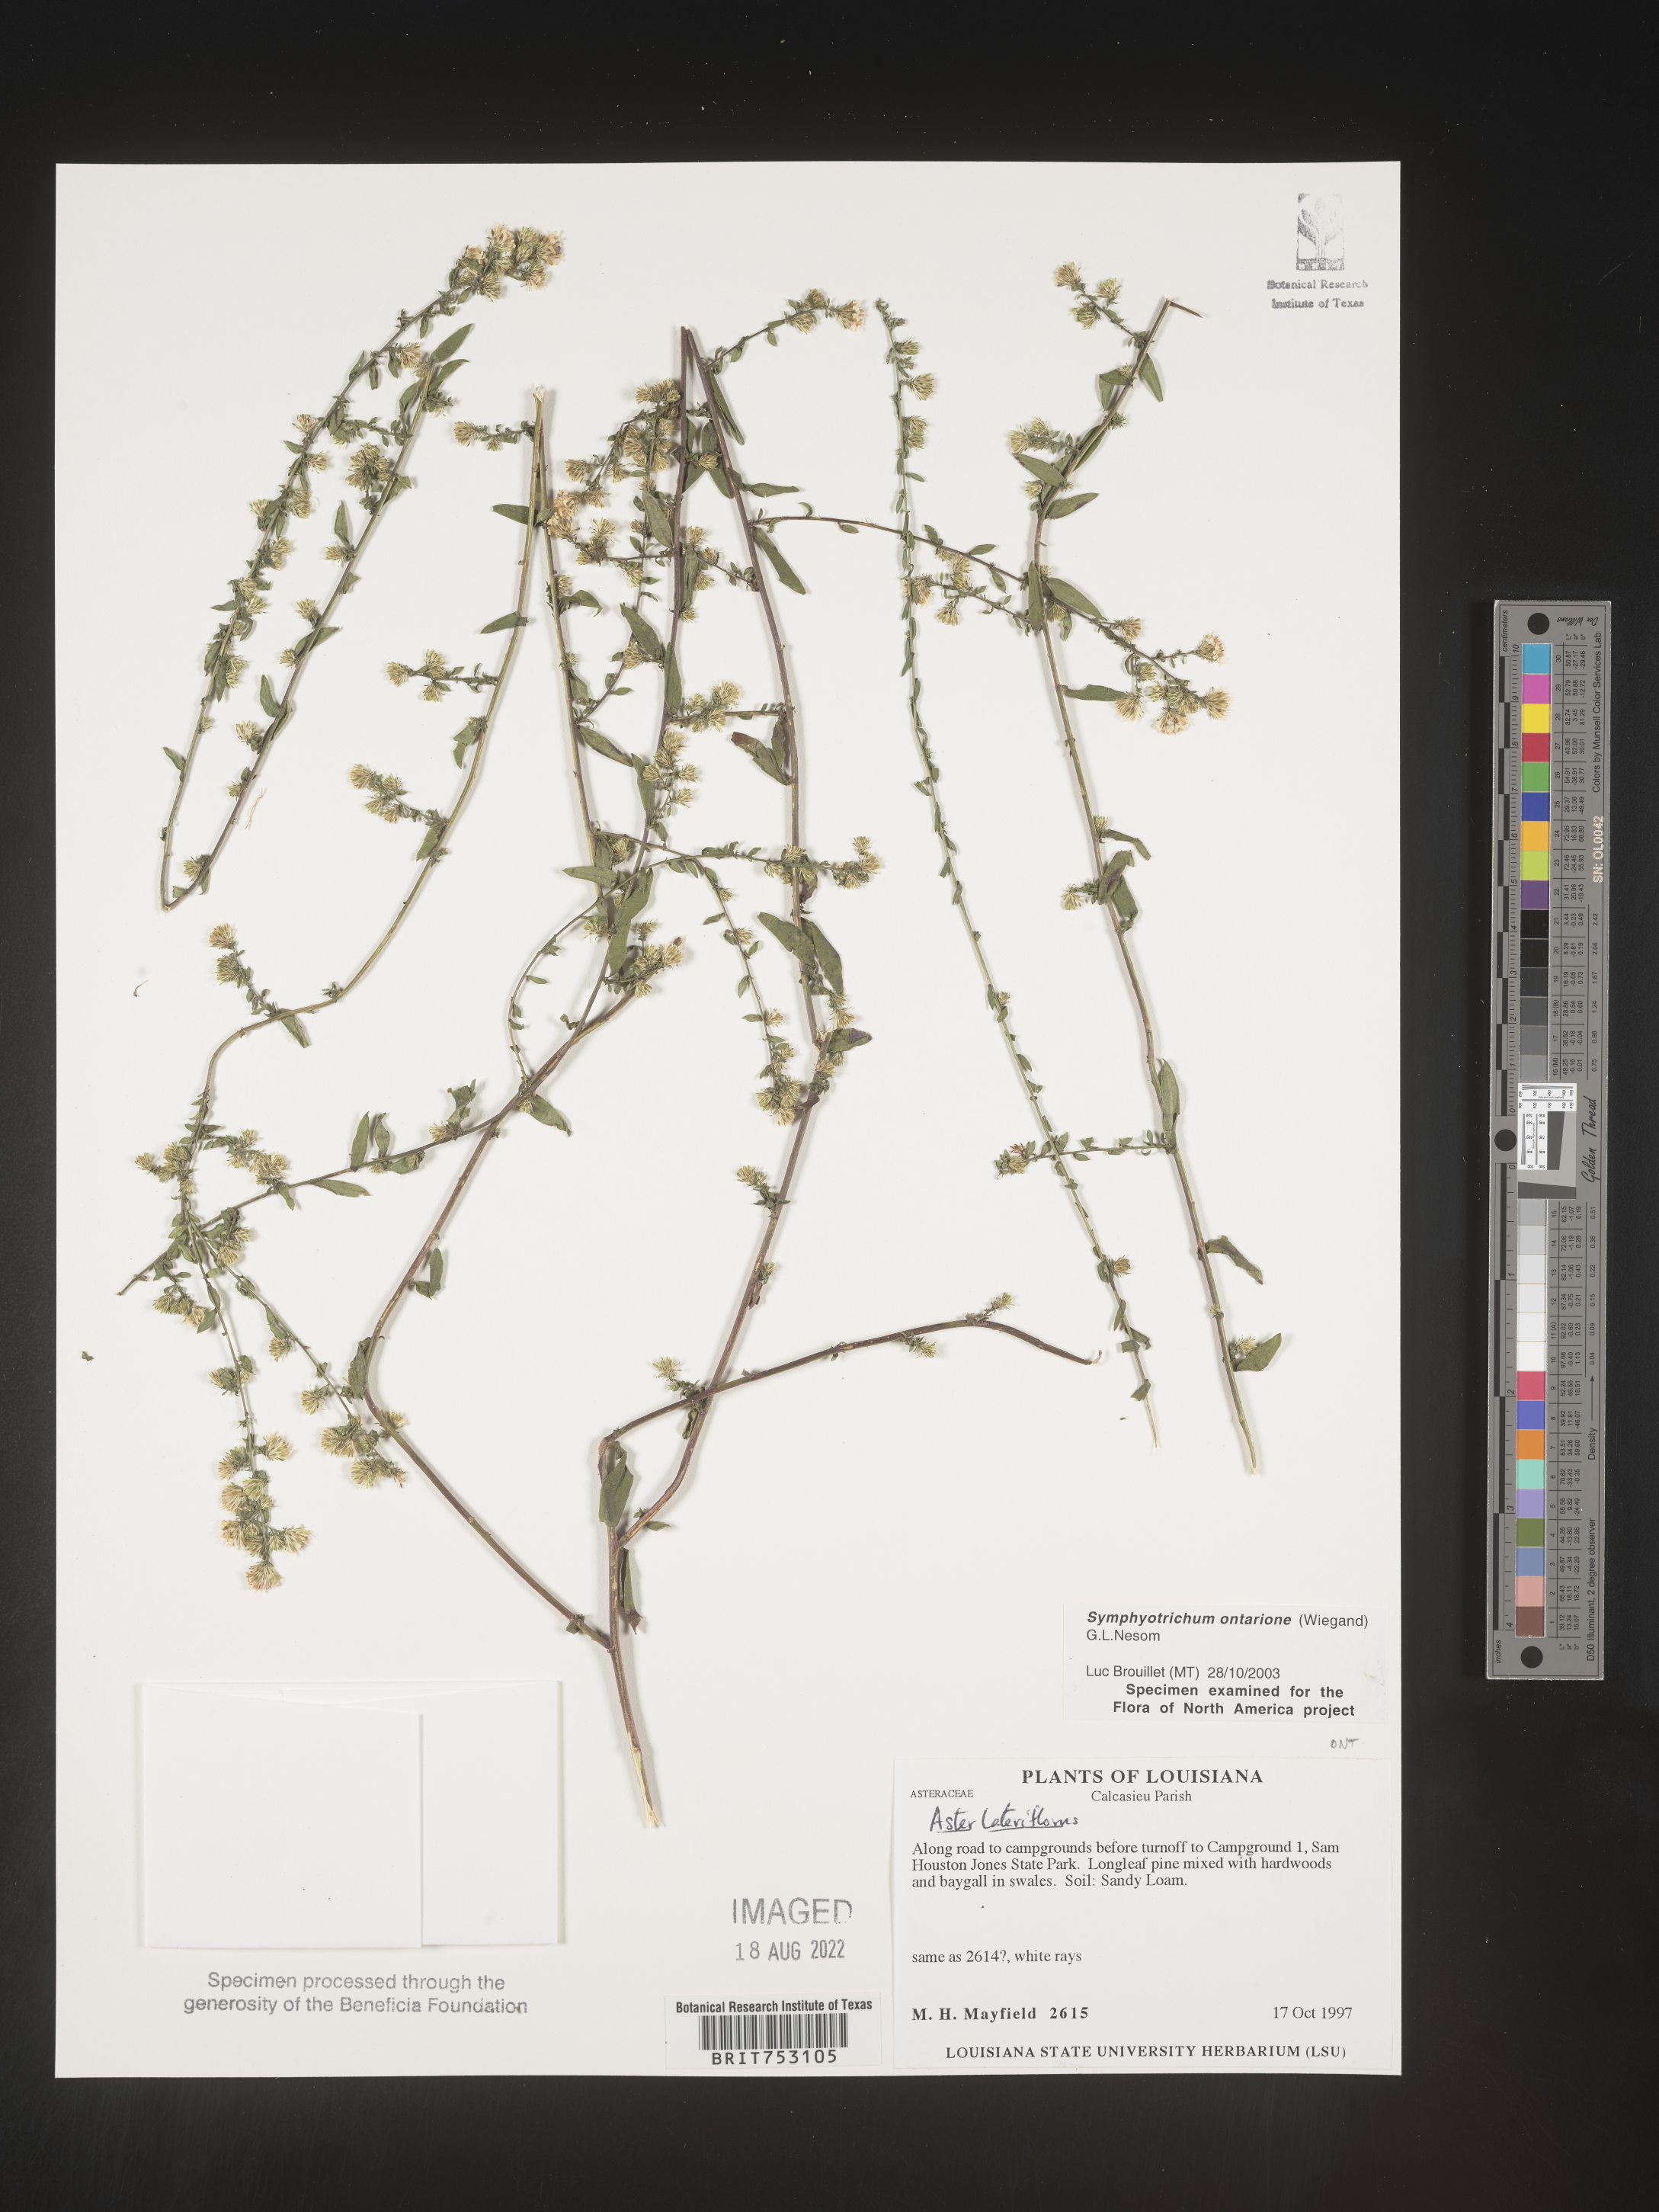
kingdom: Plantae
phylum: Tracheophyta
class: Magnoliopsida
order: Asterales
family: Asteraceae
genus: Symphyotrichum
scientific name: Symphyotrichum ontarionis
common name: Bottomland aster
